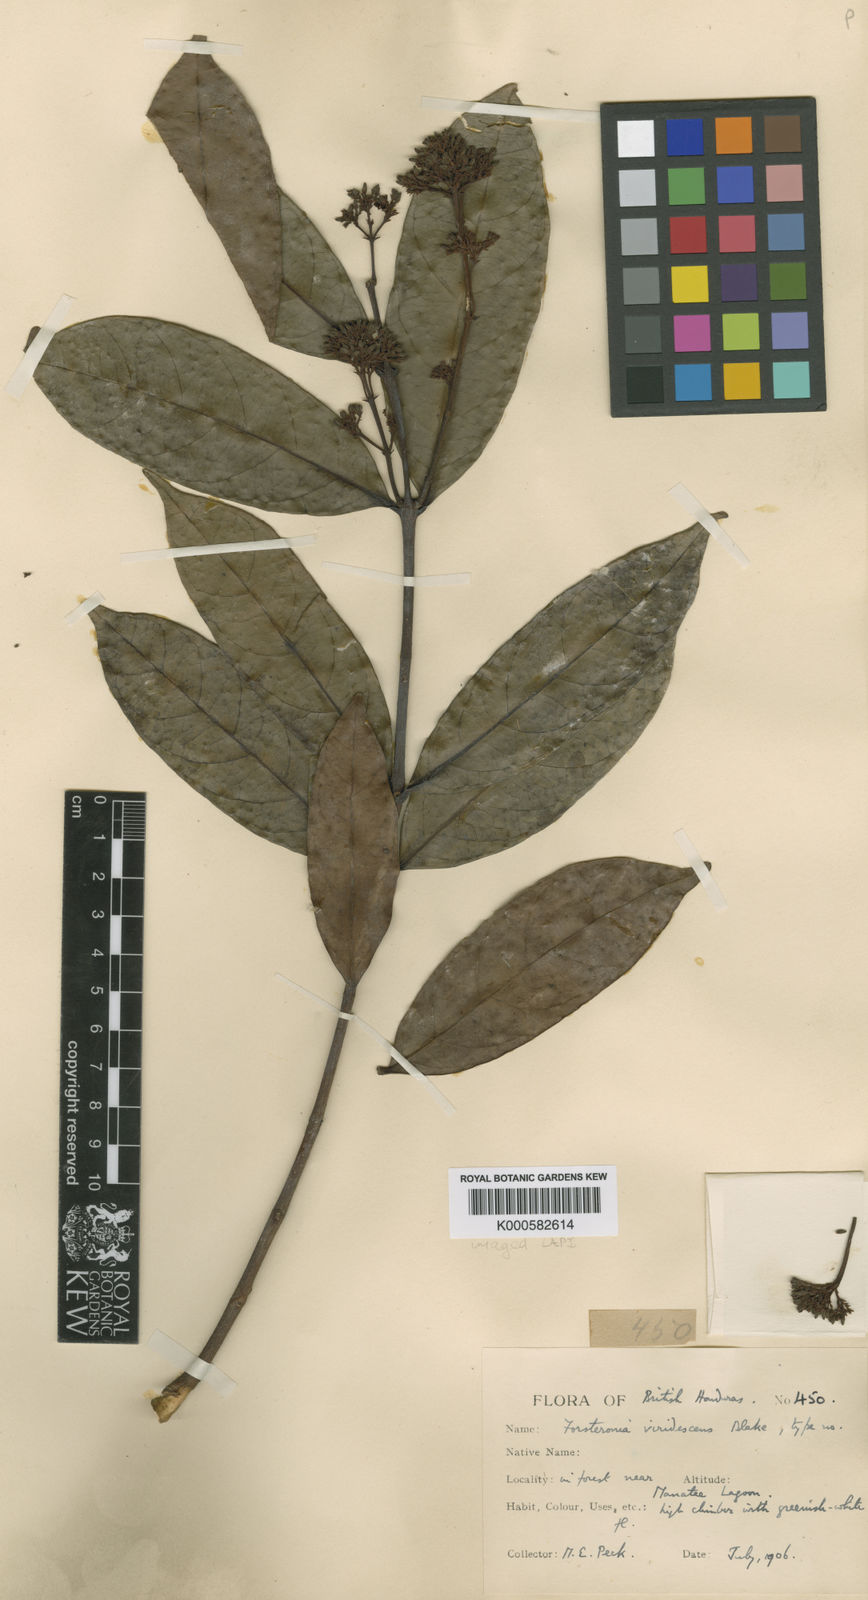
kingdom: Plantae
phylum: Tracheophyta
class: Magnoliopsida
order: Gentianales
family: Apocynaceae
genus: Forsteronia
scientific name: Forsteronia acouci
